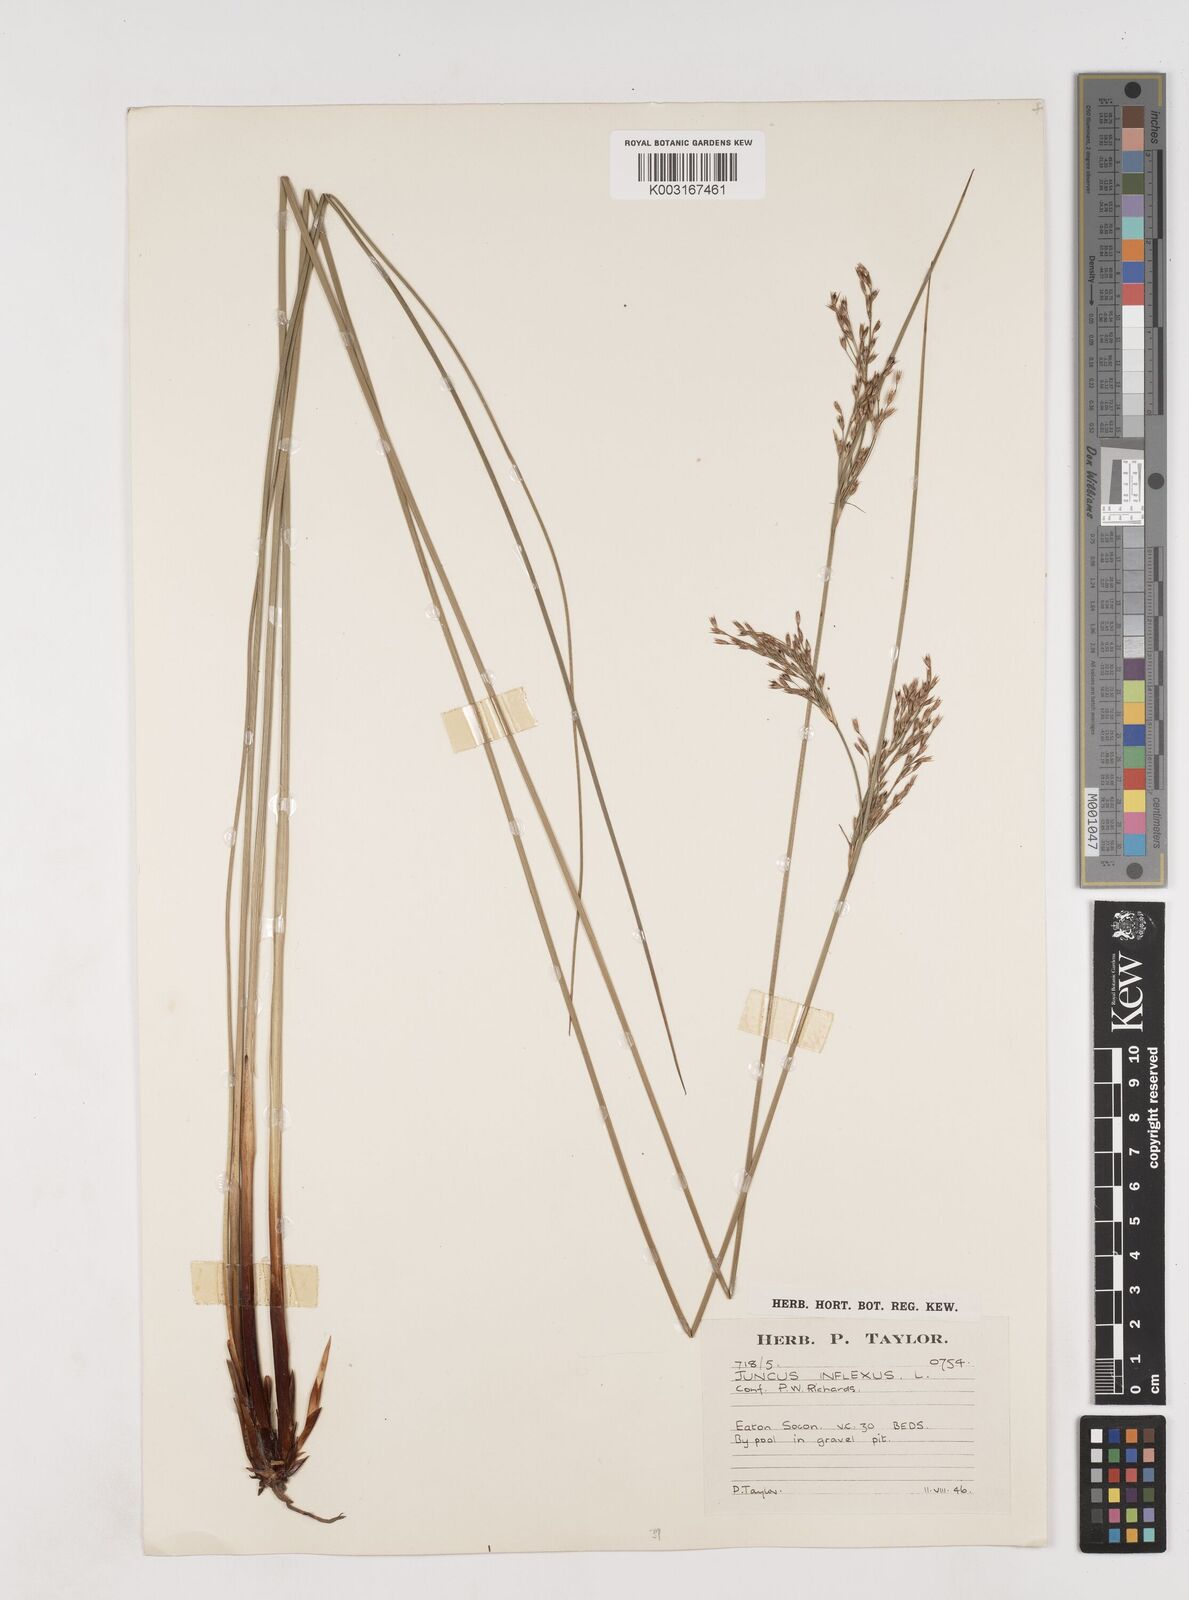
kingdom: Plantae
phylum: Tracheophyta
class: Liliopsida
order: Poales
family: Juncaceae
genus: Juncus
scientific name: Juncus inflexus
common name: Hard rush
